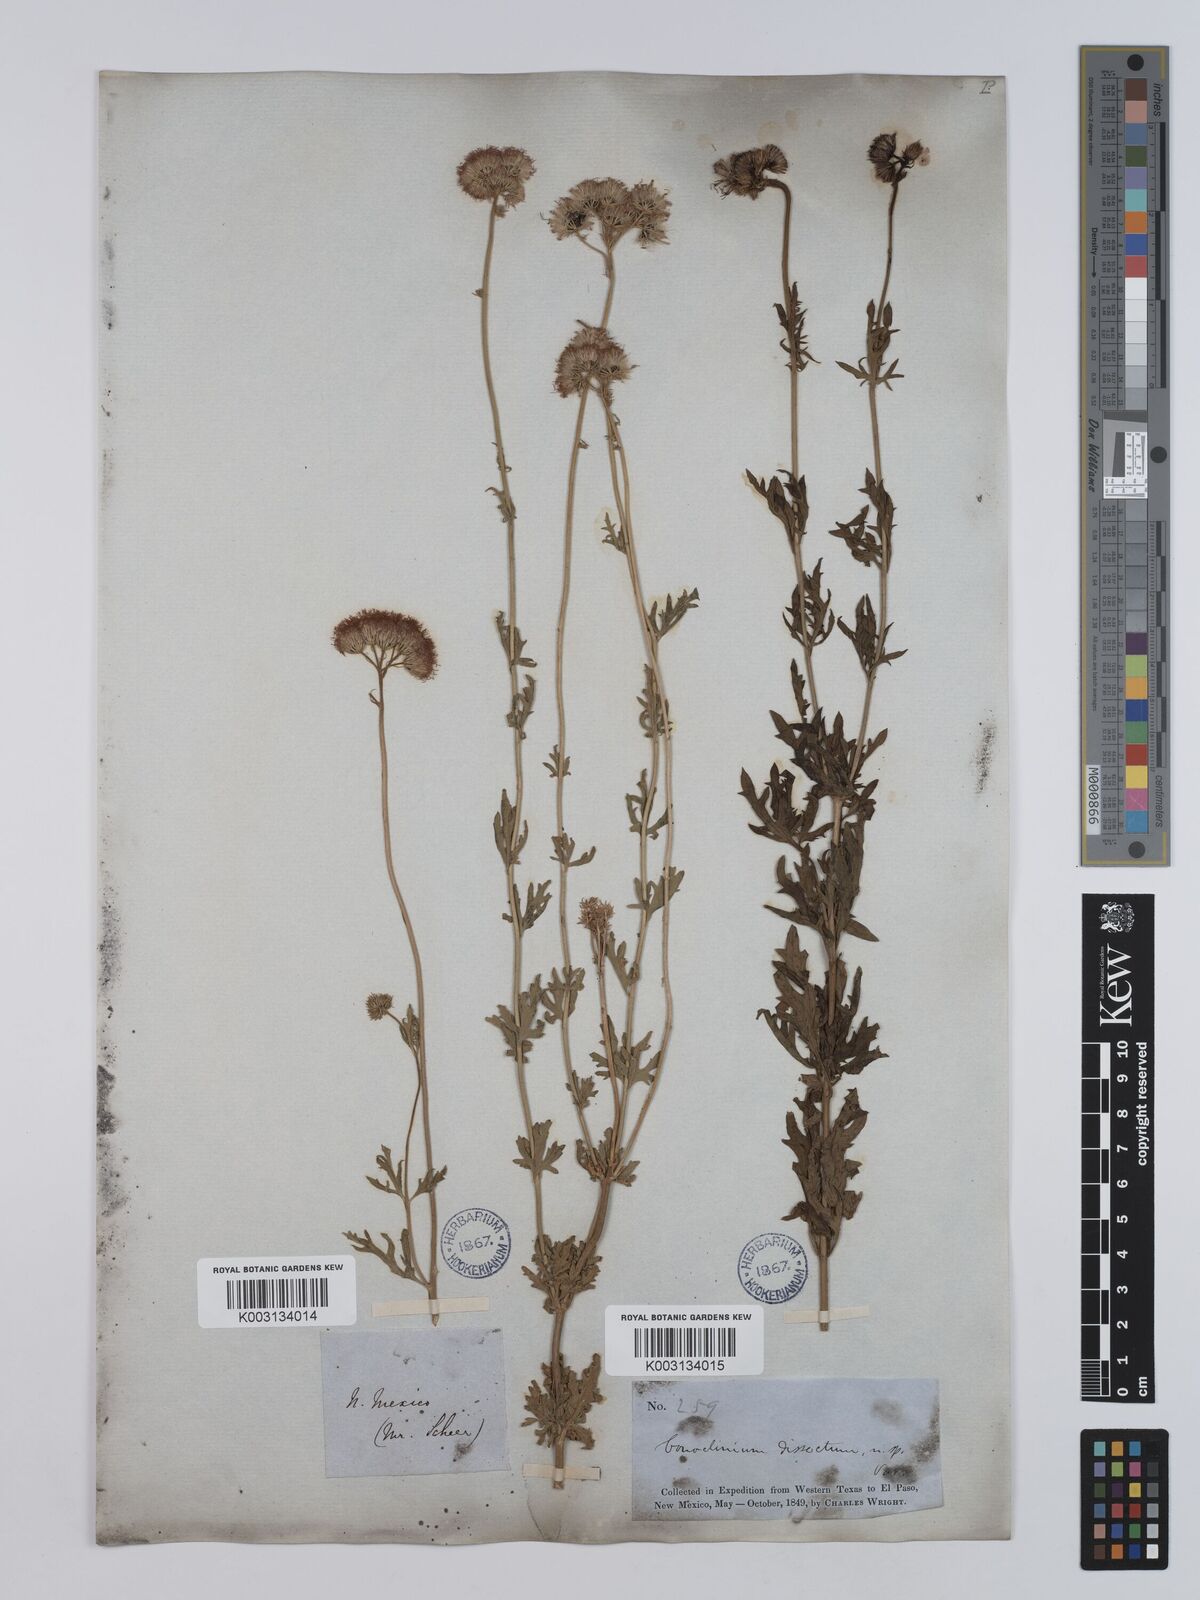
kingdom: Plantae
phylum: Tracheophyta
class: Magnoliopsida
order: Asterales
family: Asteraceae
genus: Conoclinium
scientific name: Conoclinium dissectum
